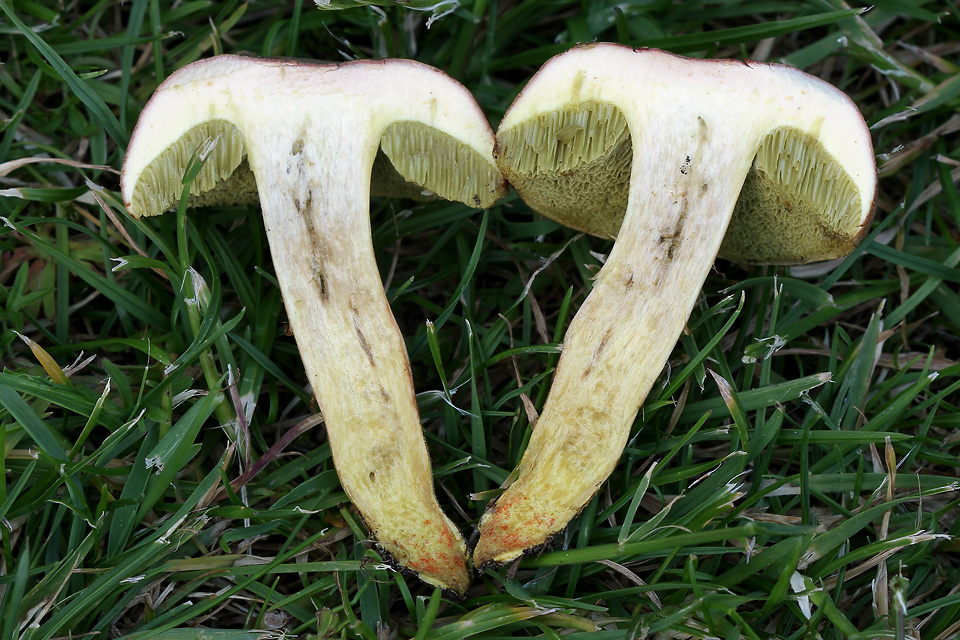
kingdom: Fungi
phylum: Basidiomycota
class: Agaricomycetes
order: Boletales
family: Boletaceae
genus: Hortiboletus
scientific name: Hortiboletus engelii
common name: fersken-rørhat
